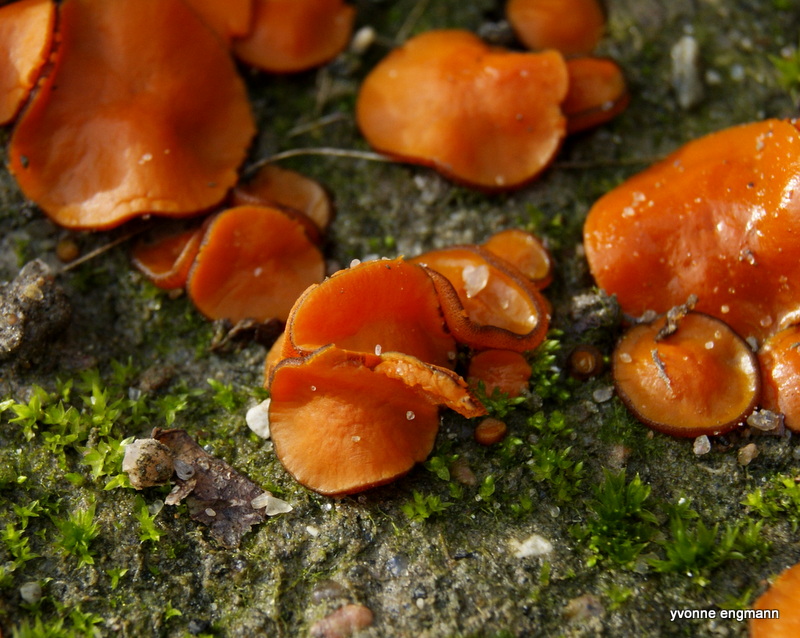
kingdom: Fungi
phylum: Ascomycota
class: Pezizomycetes
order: Pezizales
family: Pyronemataceae
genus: Melastiza
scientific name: Melastiza cornubiensis
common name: mørkrandet rødbæger
